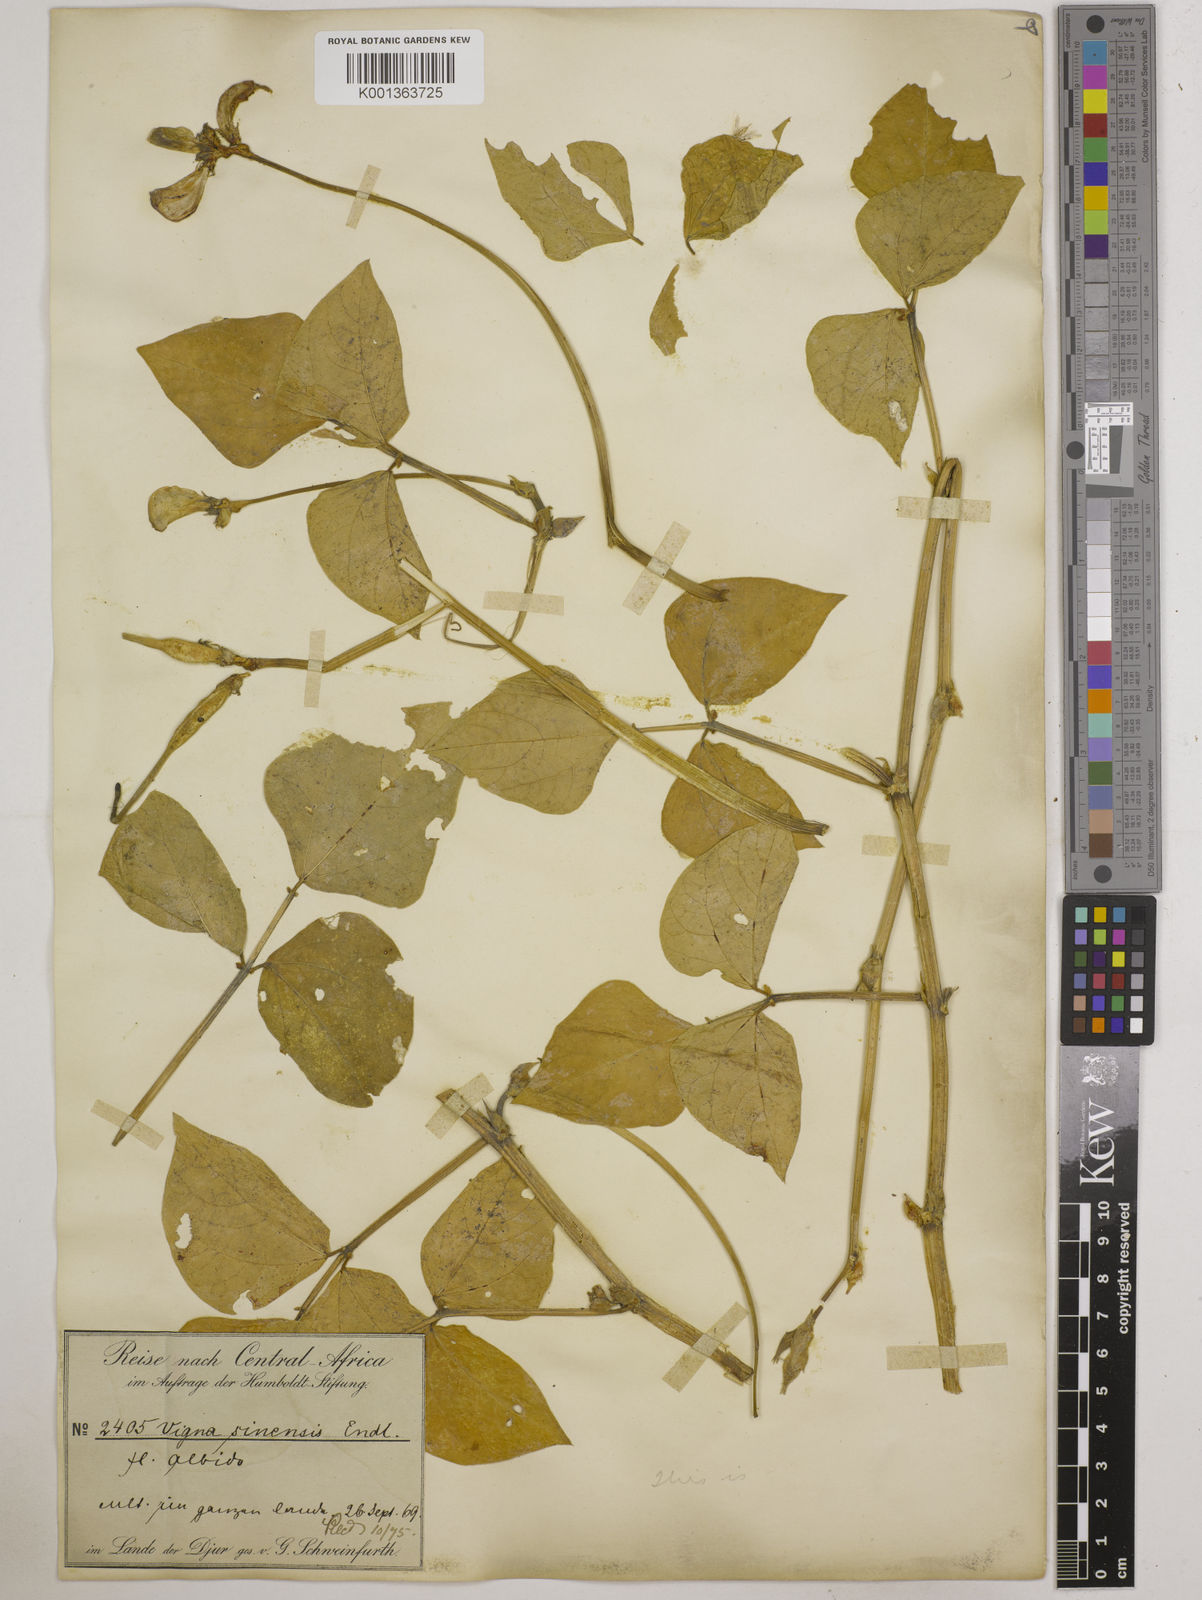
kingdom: Plantae
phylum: Tracheophyta
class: Magnoliopsida
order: Fabales
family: Fabaceae
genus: Vigna
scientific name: Vigna unguiculata
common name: Cowpea
